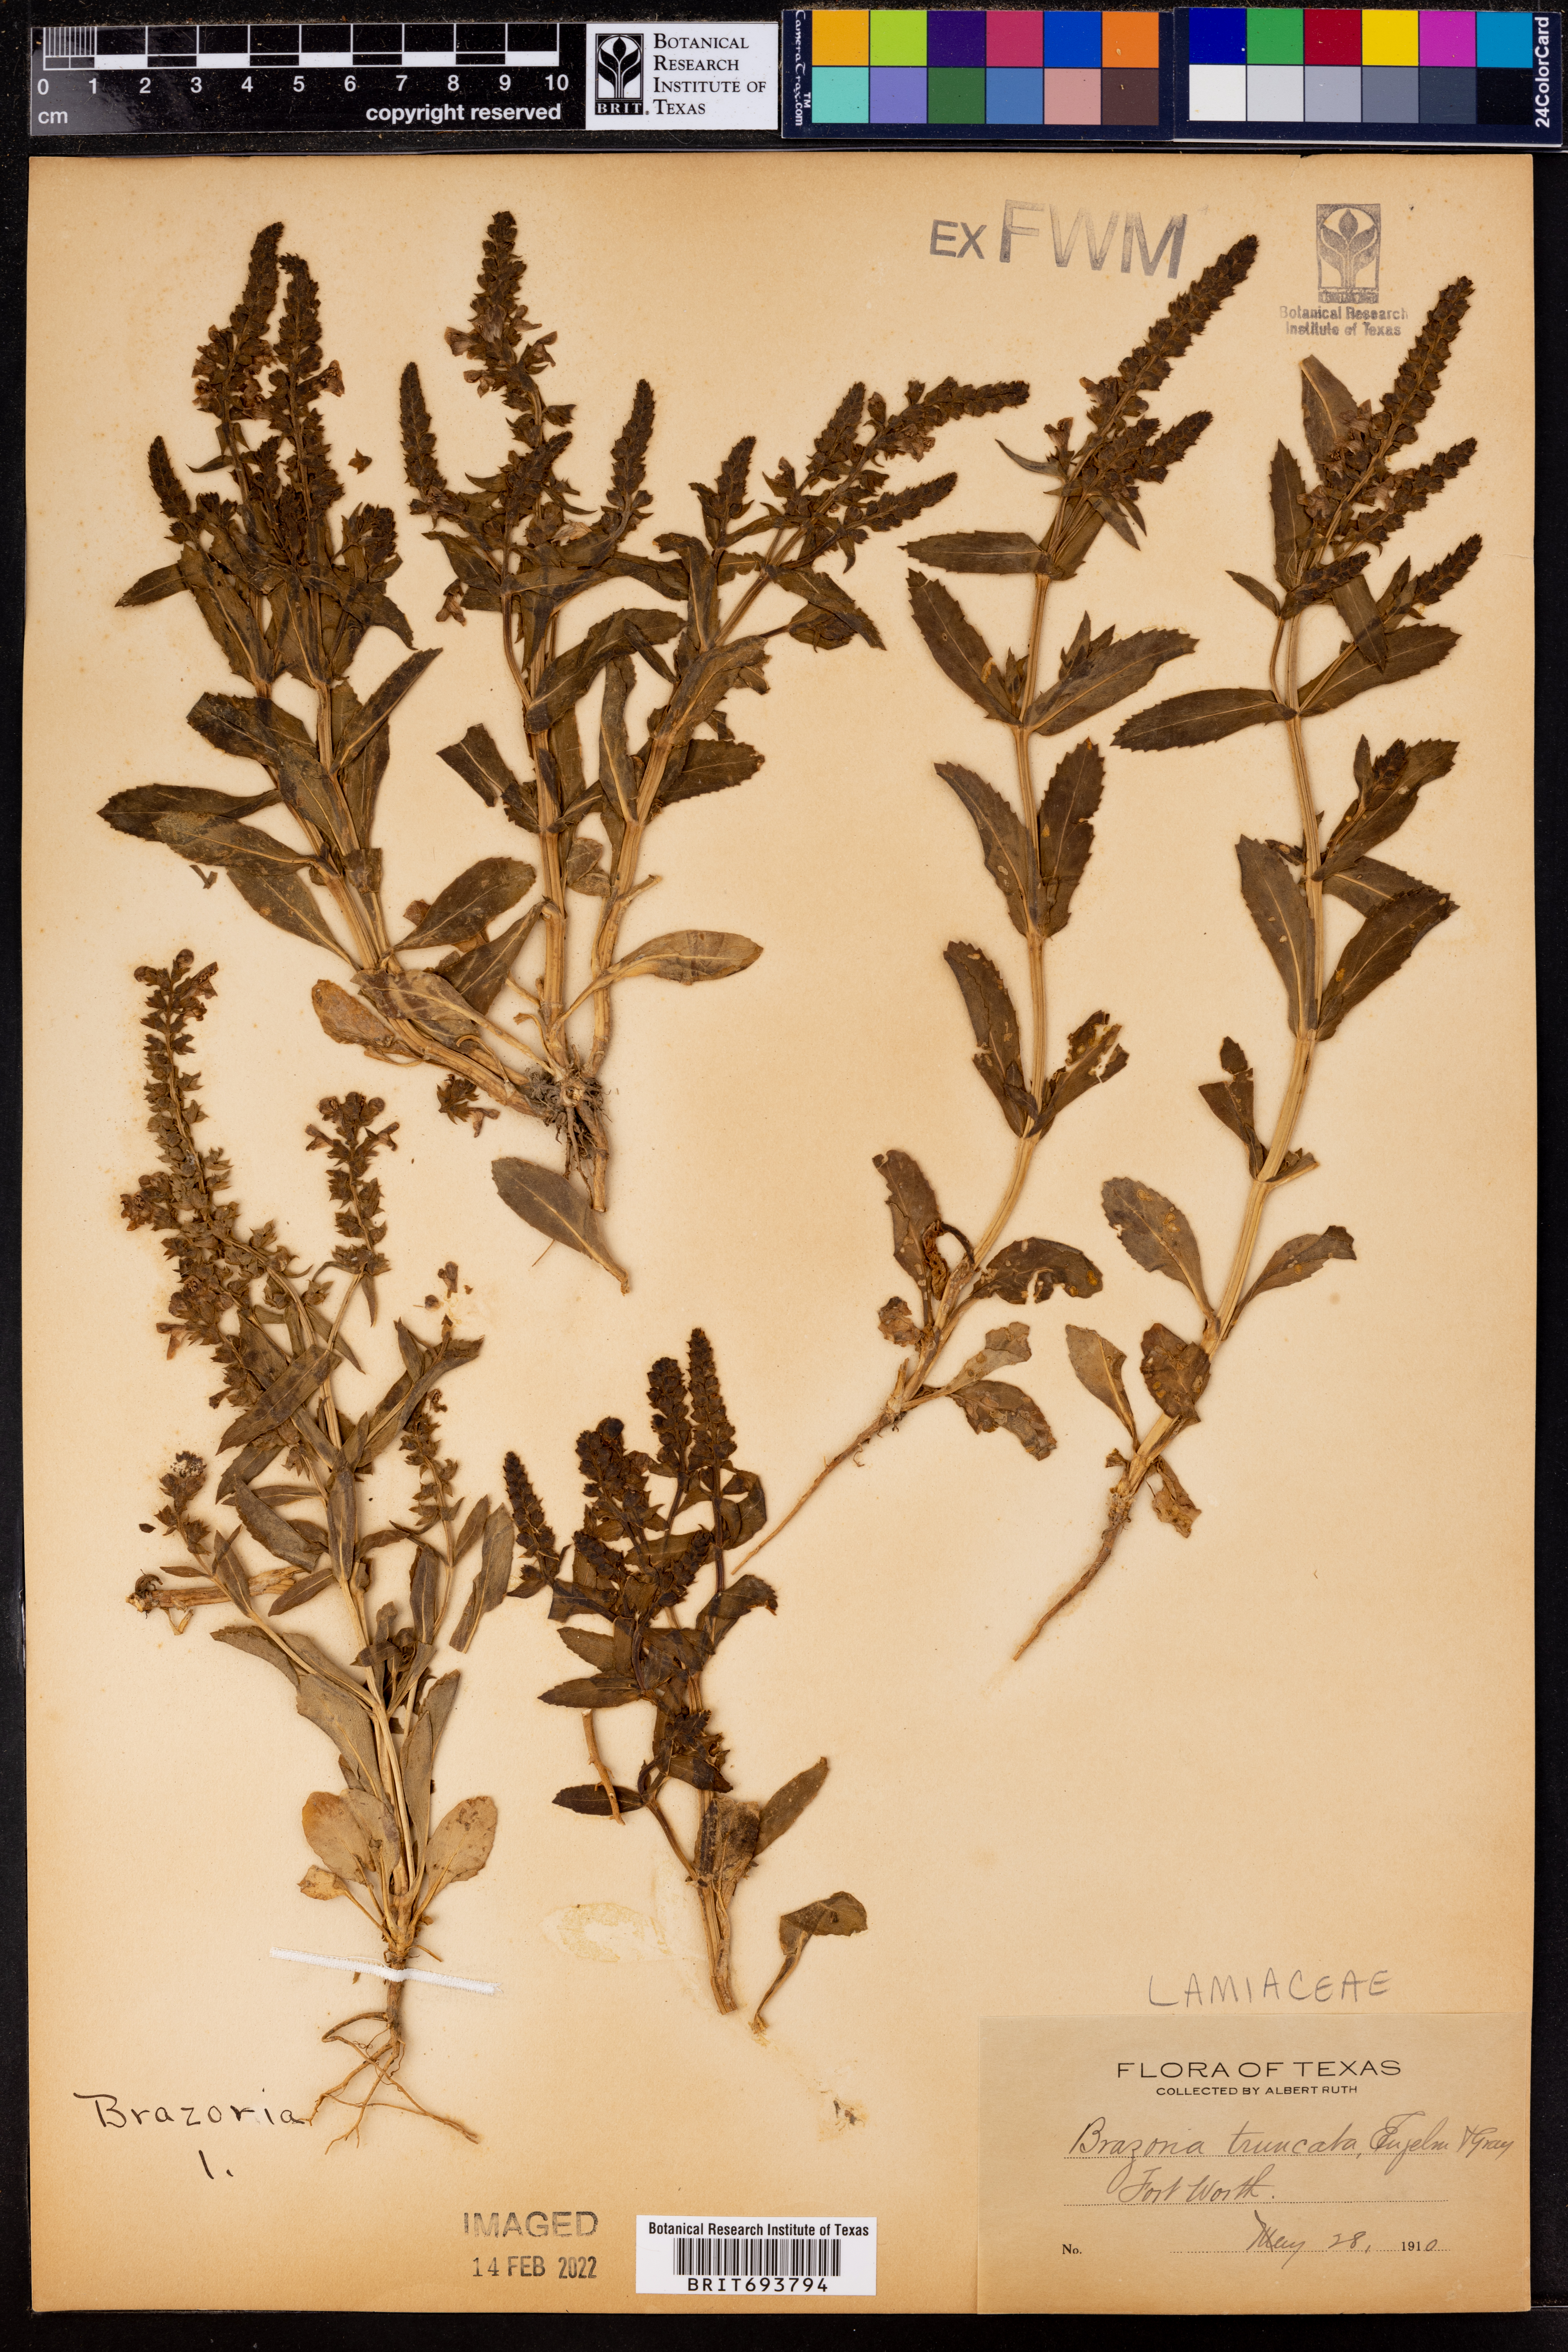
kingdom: Plantae
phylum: Tracheophyta
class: Magnoliopsida
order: Lamiales
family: Lamiaceae
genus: Brazoria
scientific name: Brazoria truncata
